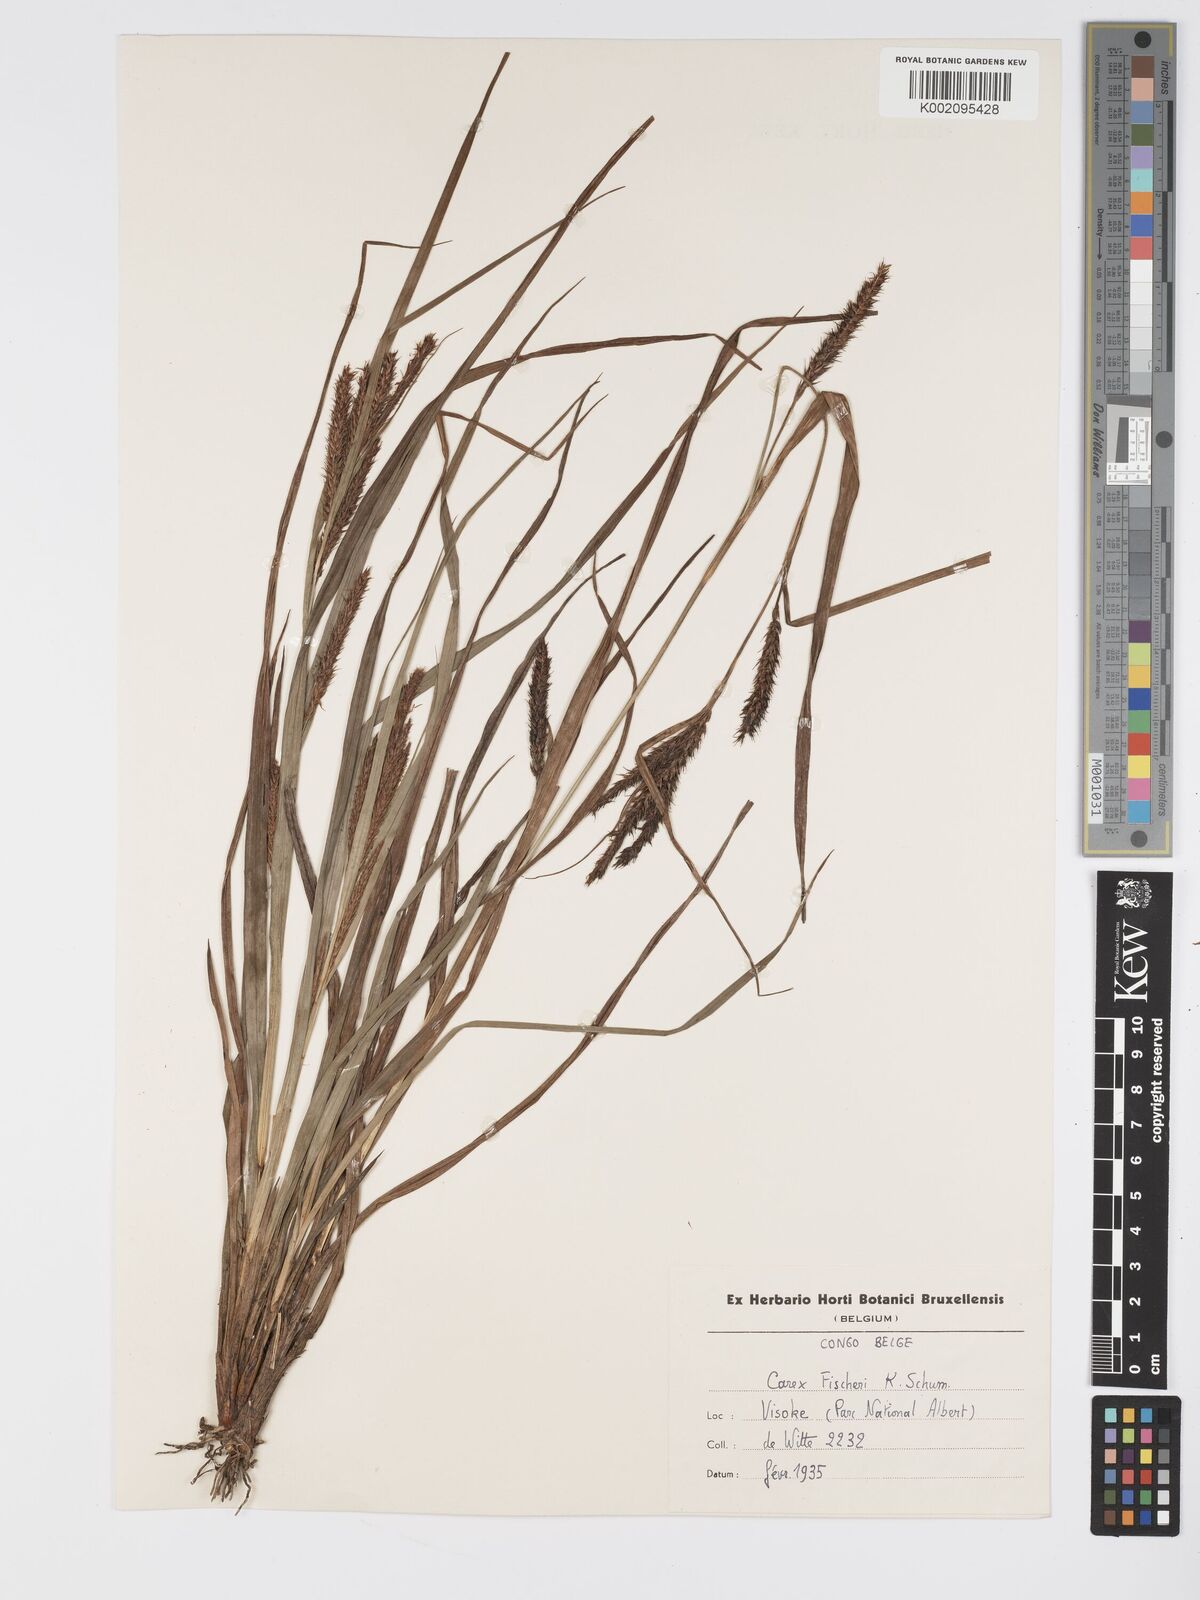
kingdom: Plantae
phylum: Tracheophyta
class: Liliopsida
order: Poales
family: Cyperaceae
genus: Carex
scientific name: Carex fischeri
